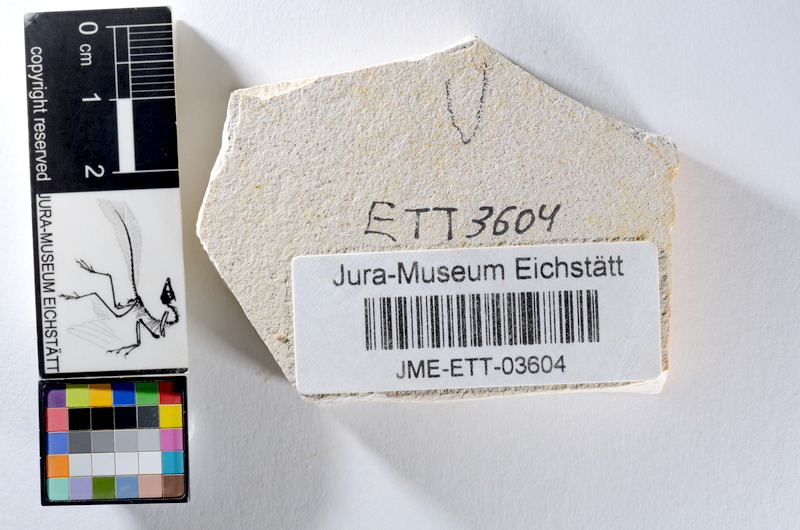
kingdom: Animalia
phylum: Chordata
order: Salmoniformes
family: Orthogonikleithridae
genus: Orthogonikleithrus
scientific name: Orthogonikleithrus hoelli
